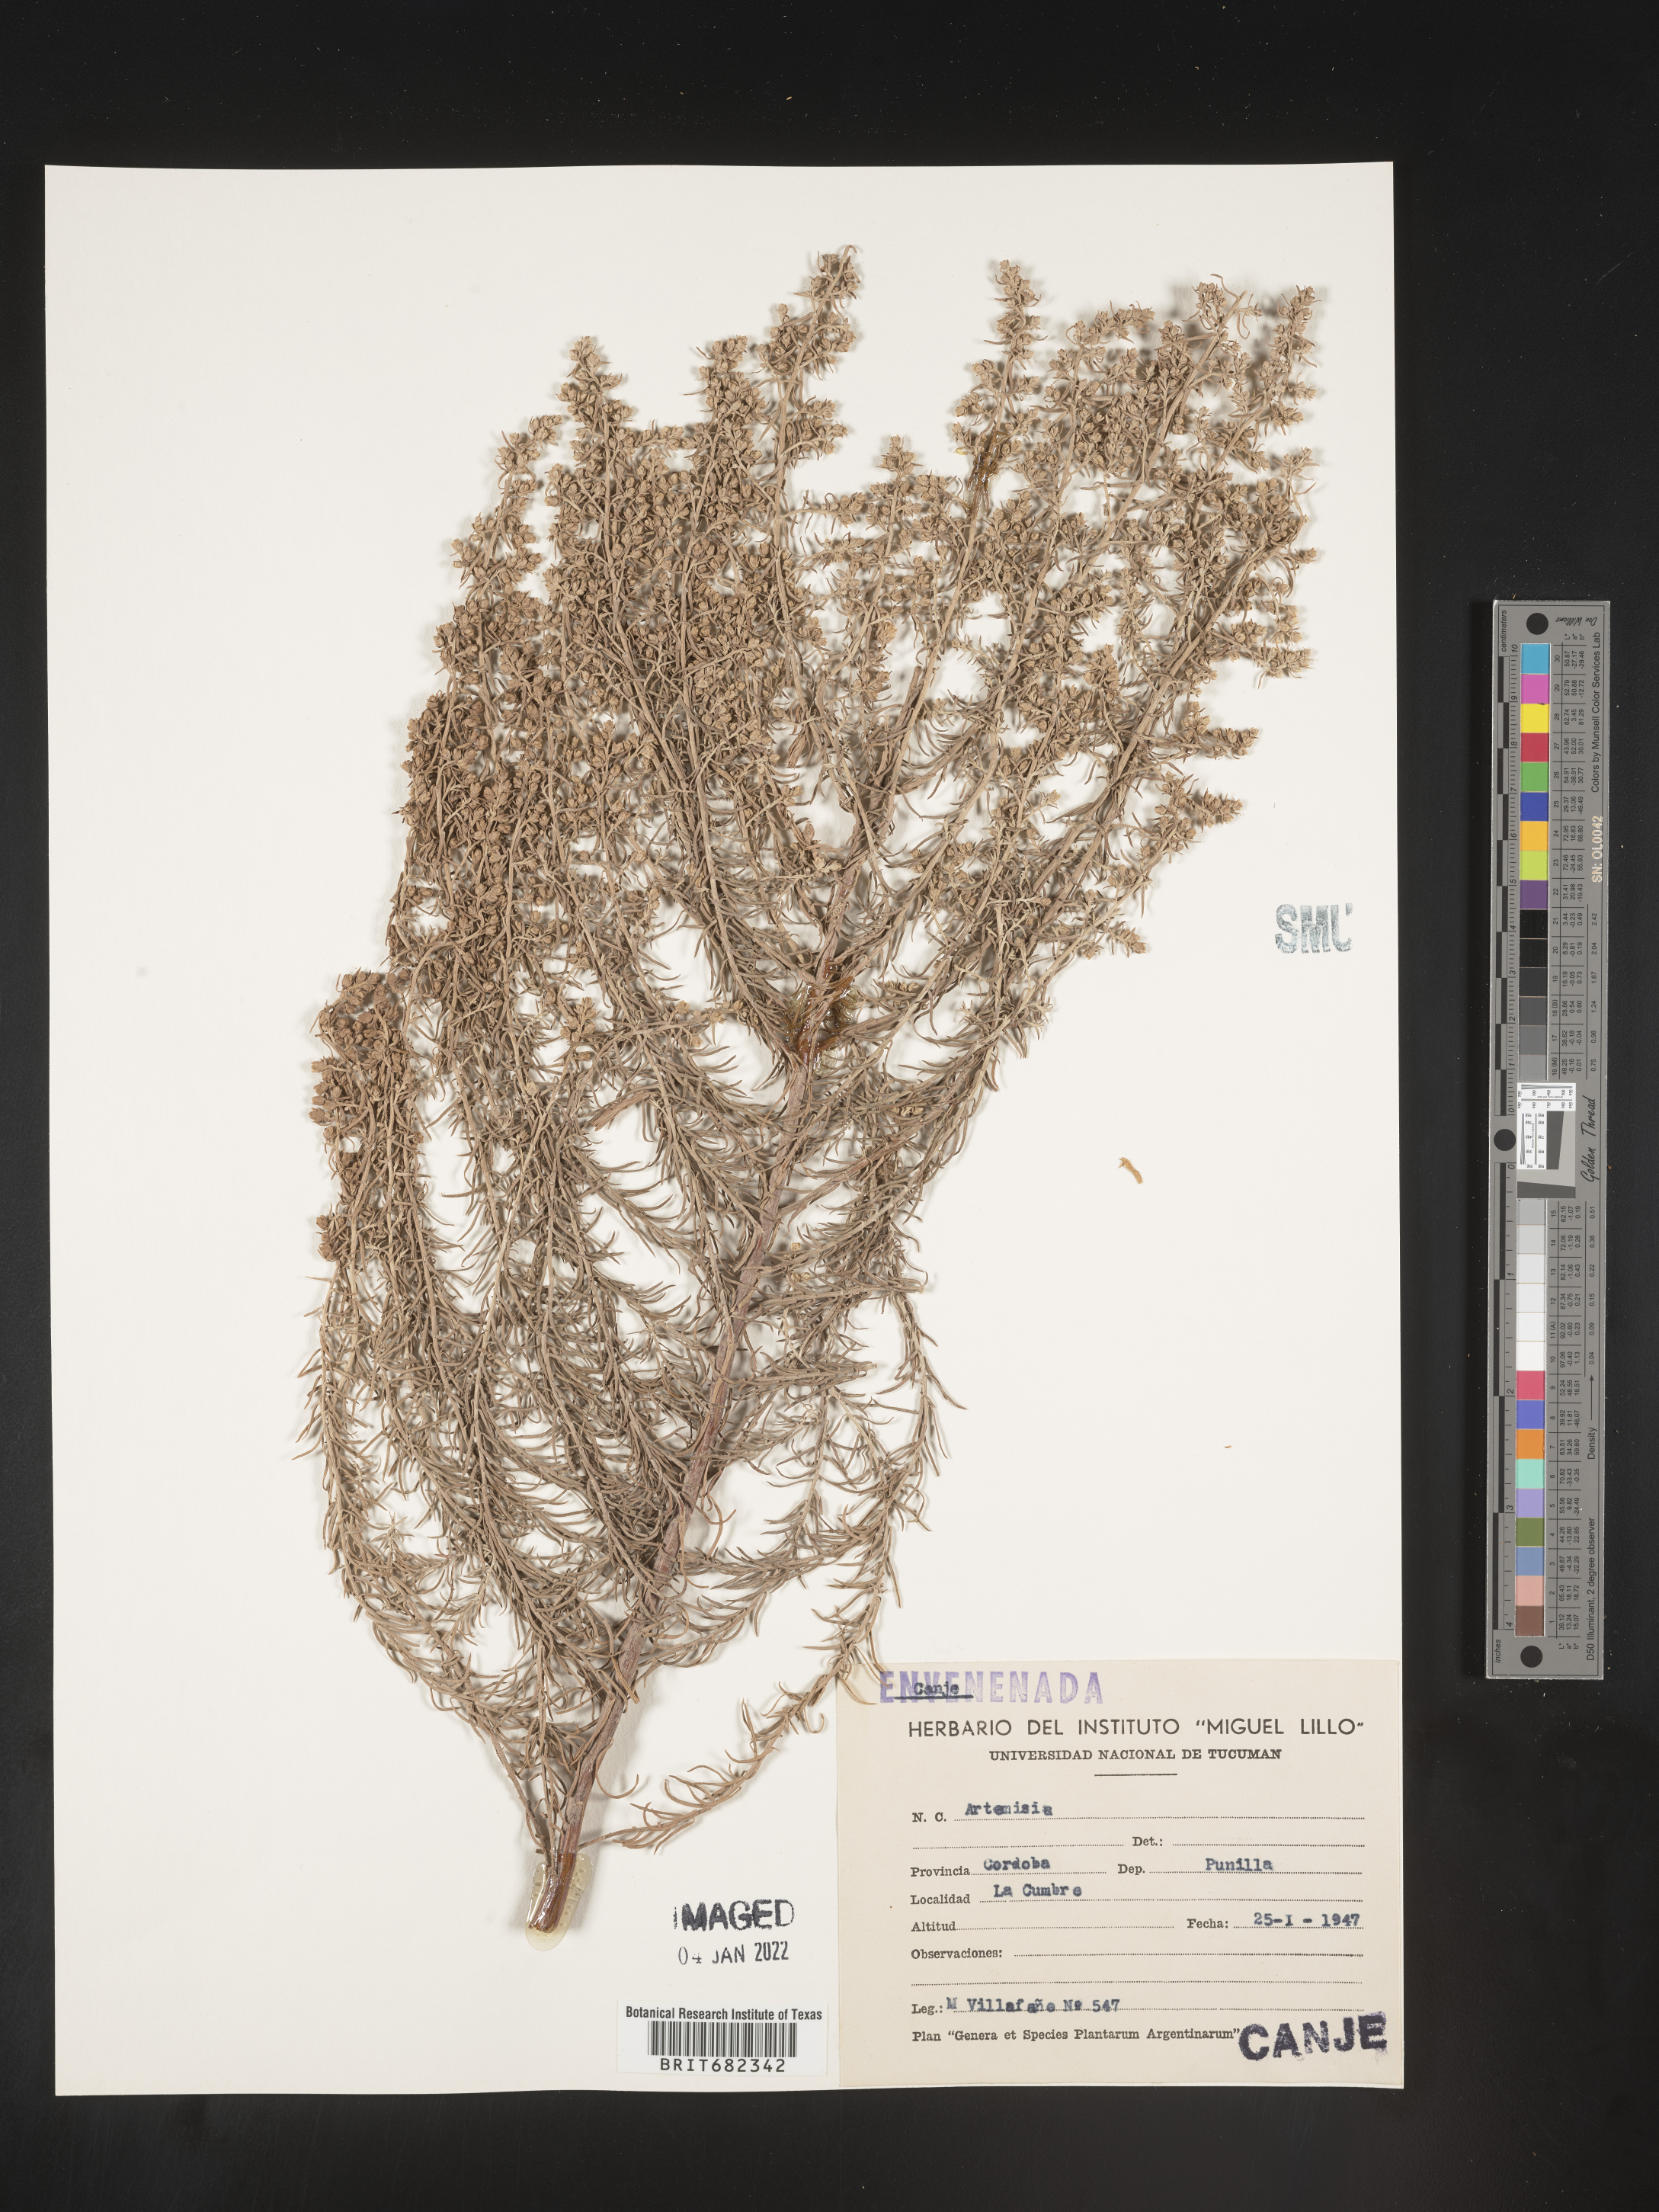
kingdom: Plantae
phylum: Tracheophyta
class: Magnoliopsida
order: Asterales
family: Asteraceae
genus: Artemisia
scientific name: Artemisia
